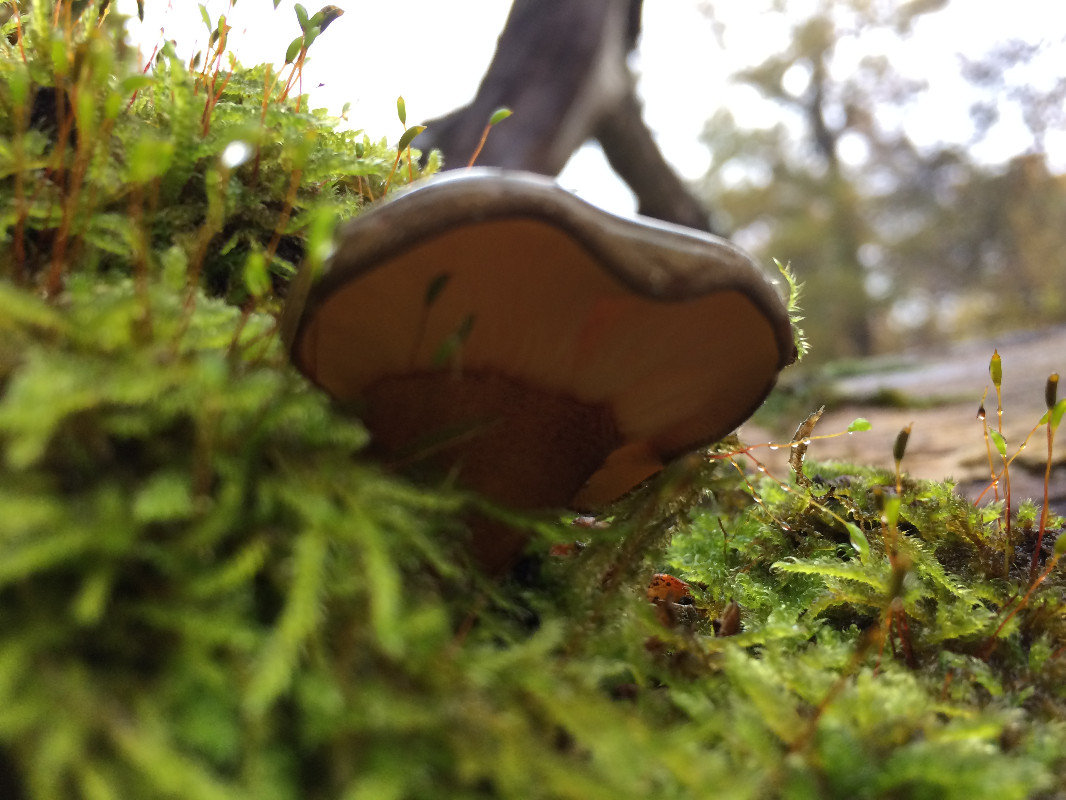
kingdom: Fungi
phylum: Basidiomycota
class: Agaricomycetes
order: Agaricales
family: Sarcomyxaceae
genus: Sarcomyxa
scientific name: Sarcomyxa serotina
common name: gummihat
